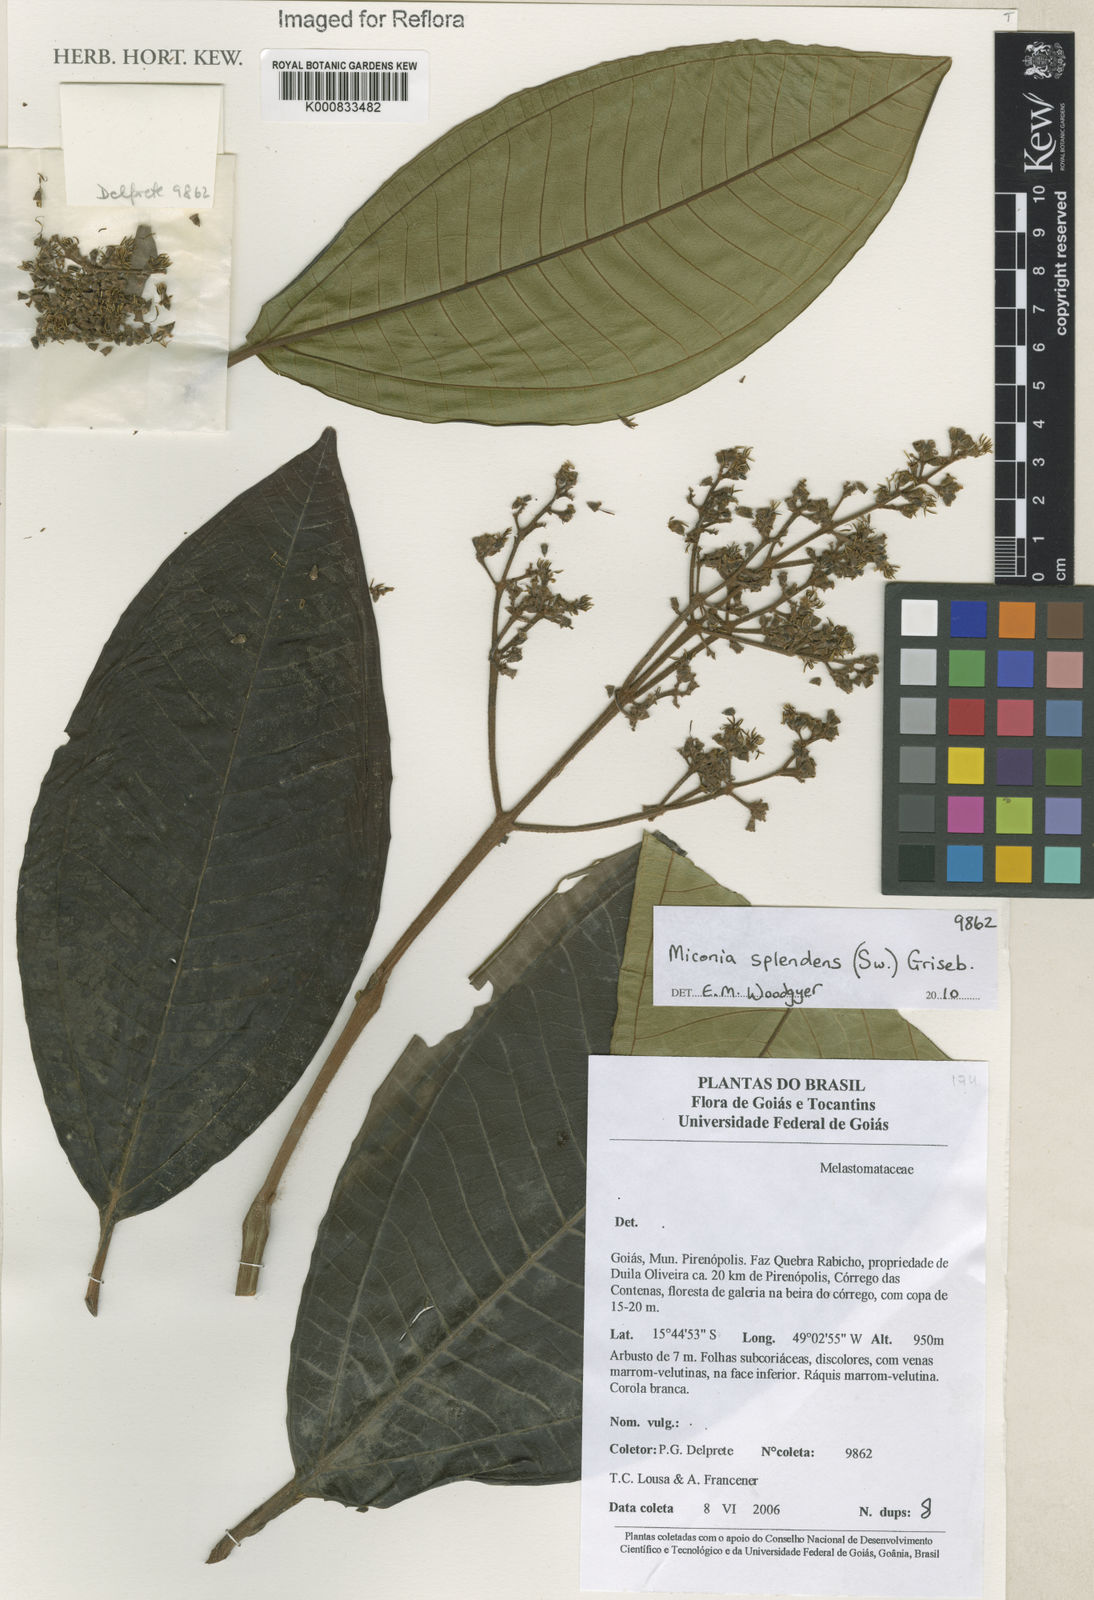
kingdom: Plantae
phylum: Tracheophyta
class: Magnoliopsida
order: Myrtales
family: Melastomataceae
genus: Miconia
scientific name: Miconia splendens
